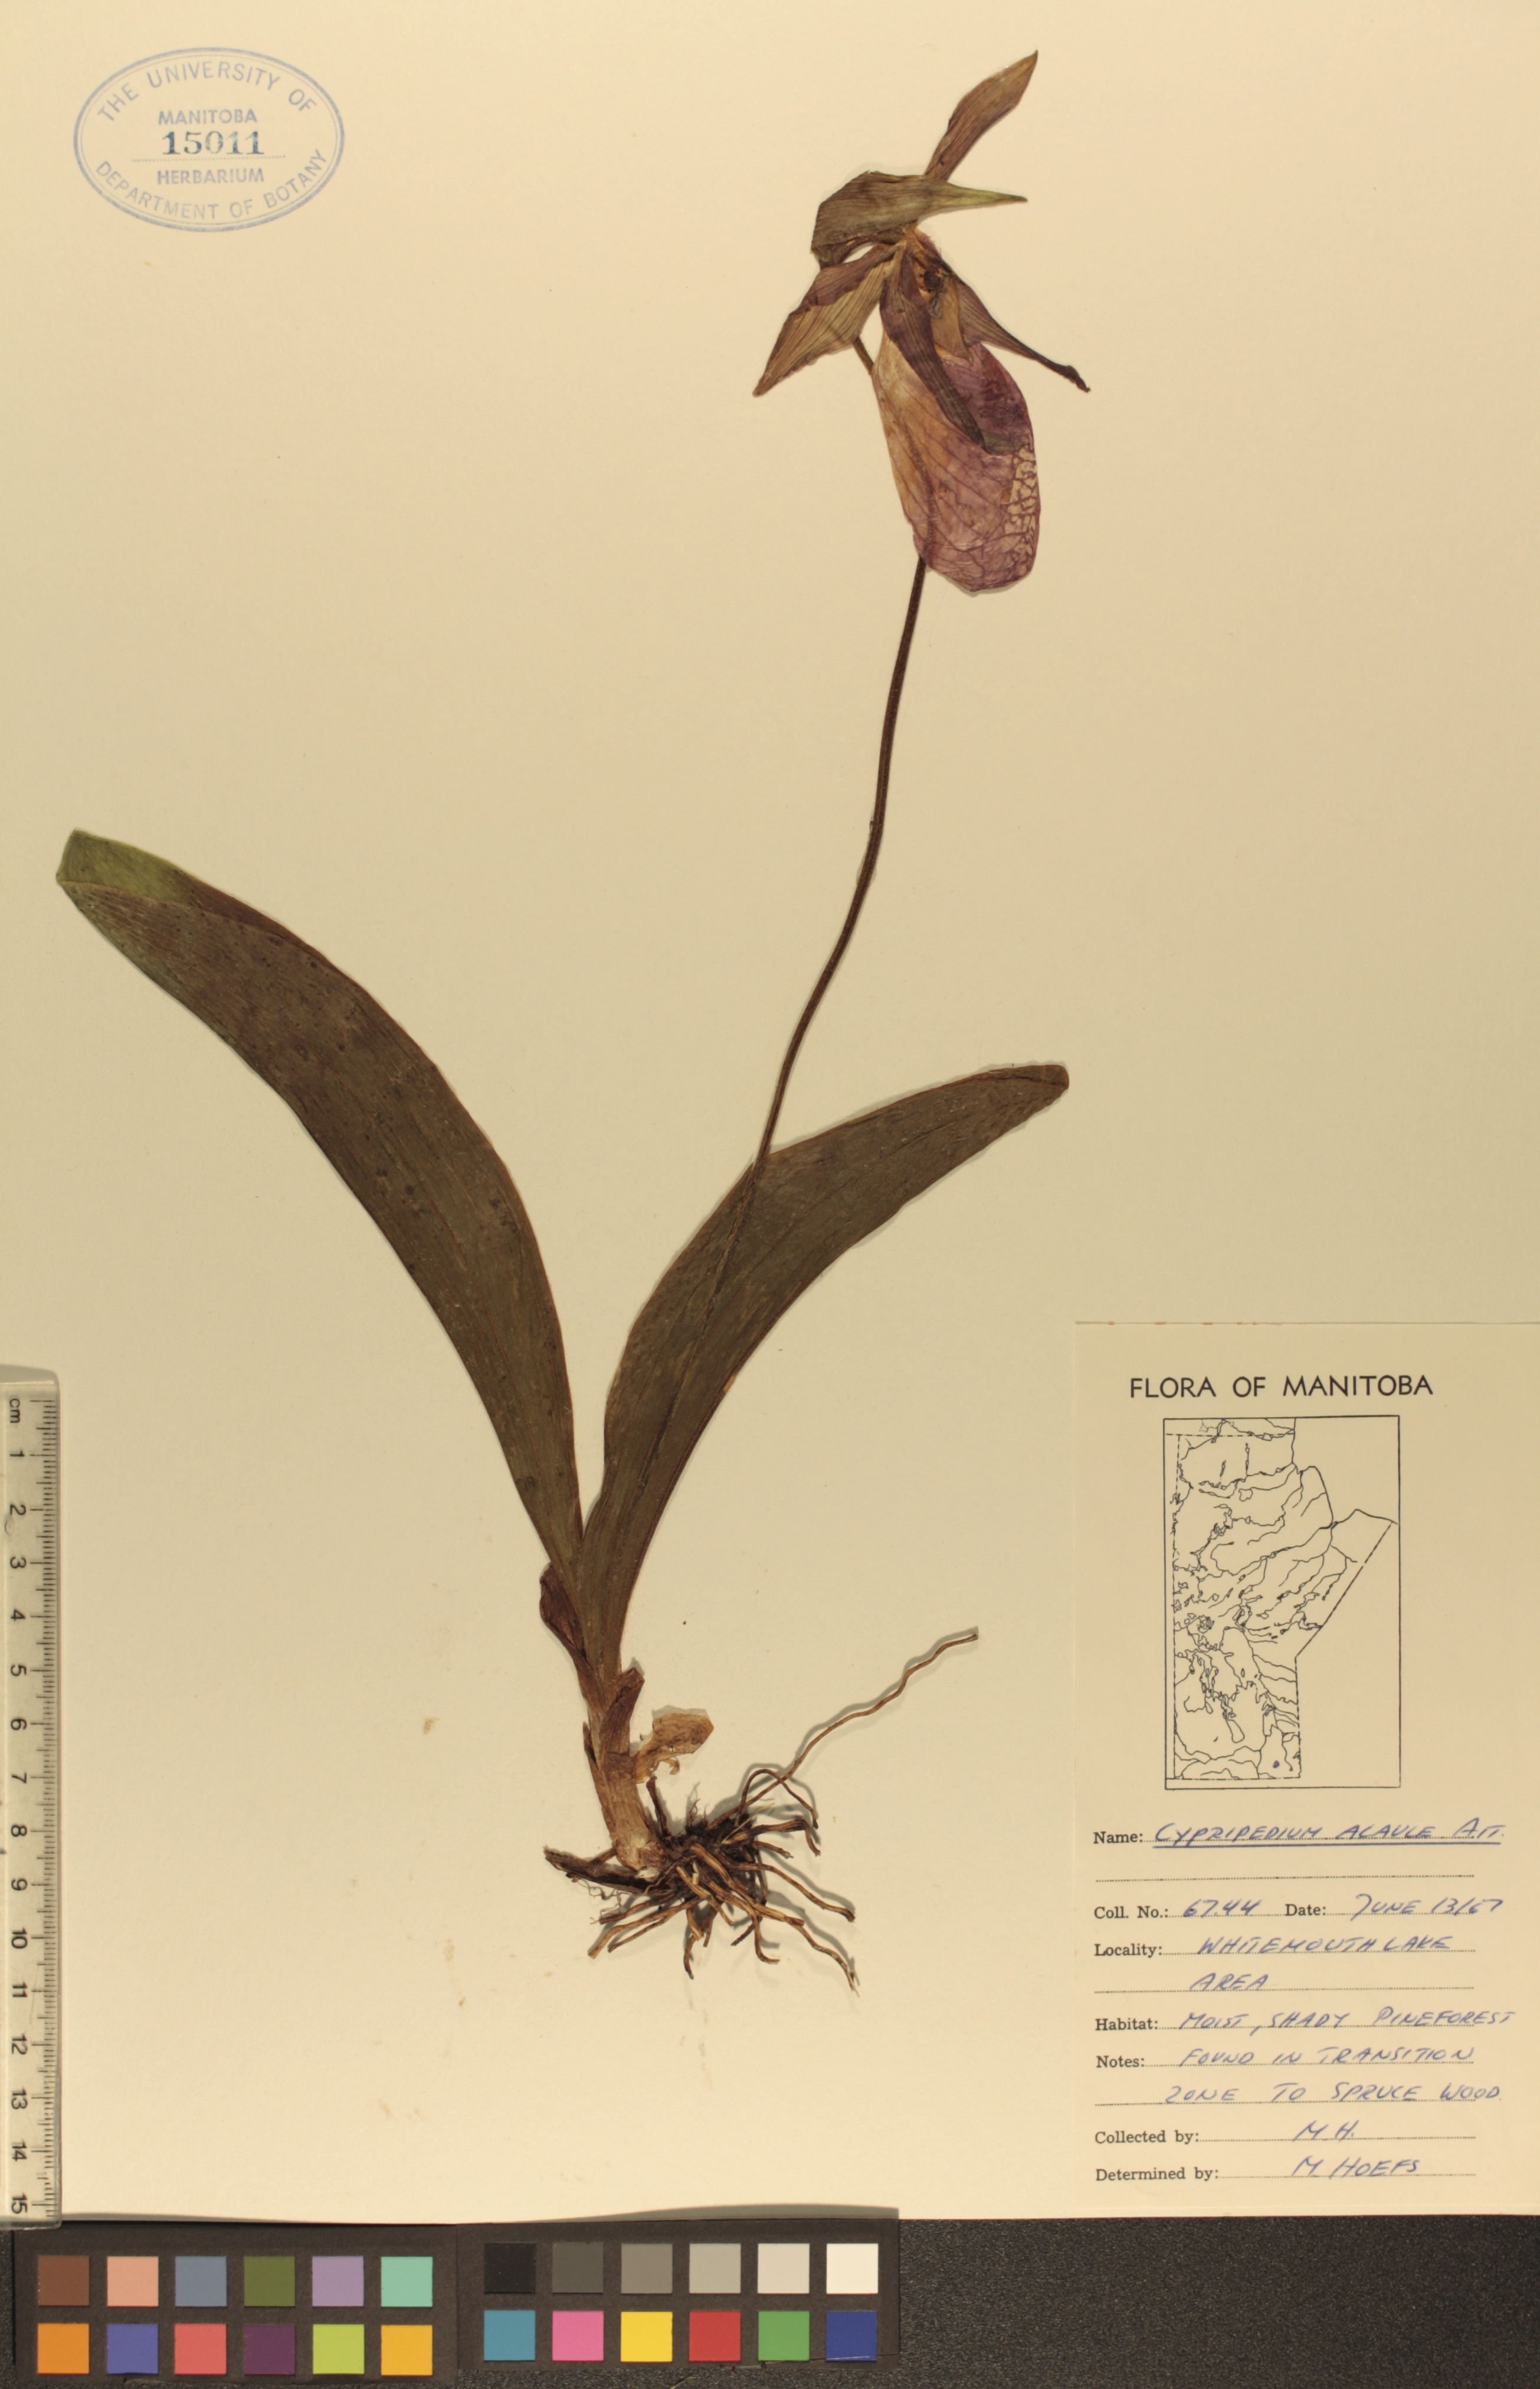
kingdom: Plantae
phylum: Tracheophyta
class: Liliopsida
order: Asparagales
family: Orchidaceae
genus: Cypripedium
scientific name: Cypripedium acaule
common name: Pink lady's-slipper
